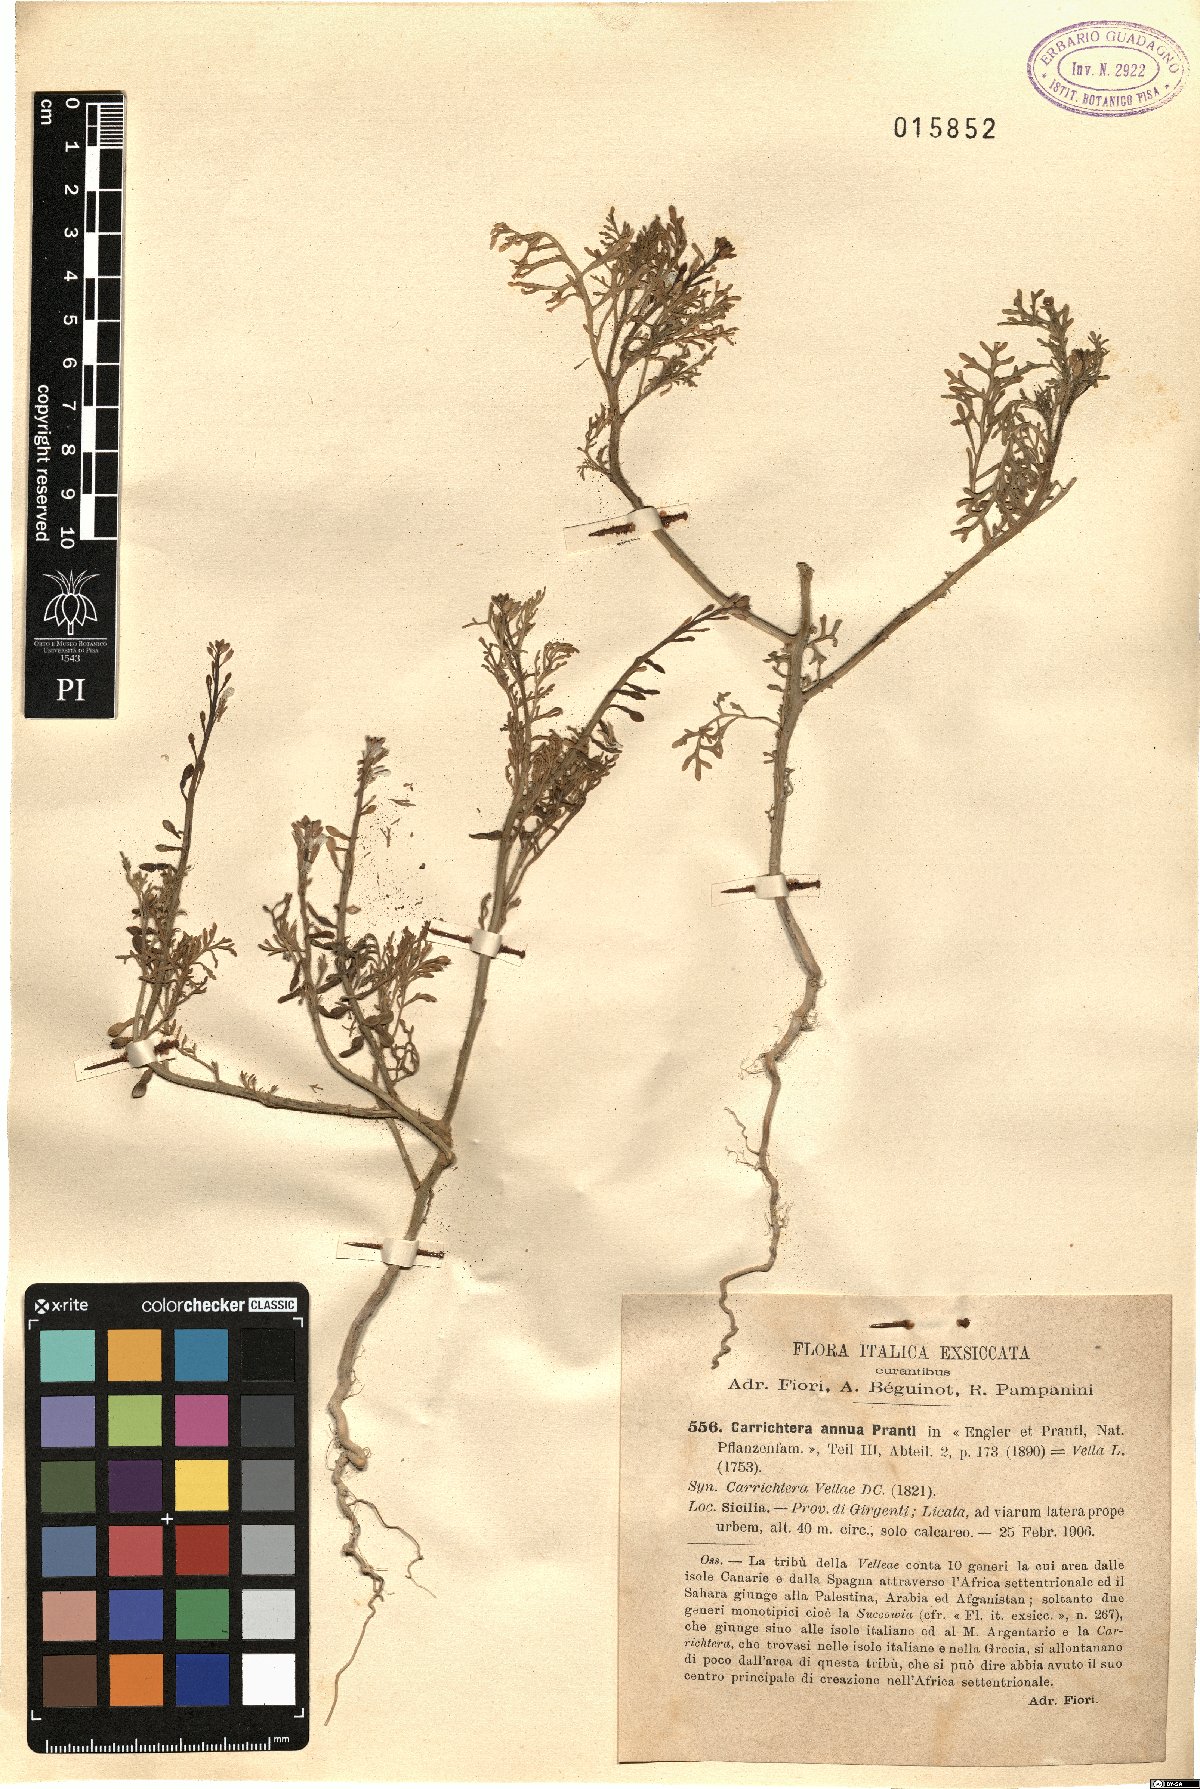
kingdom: Plantae
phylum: Tracheophyta
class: Magnoliopsida
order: Brassicales
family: Brassicaceae
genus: Carrichtera
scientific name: Carrichtera annua
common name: Cress rocket
